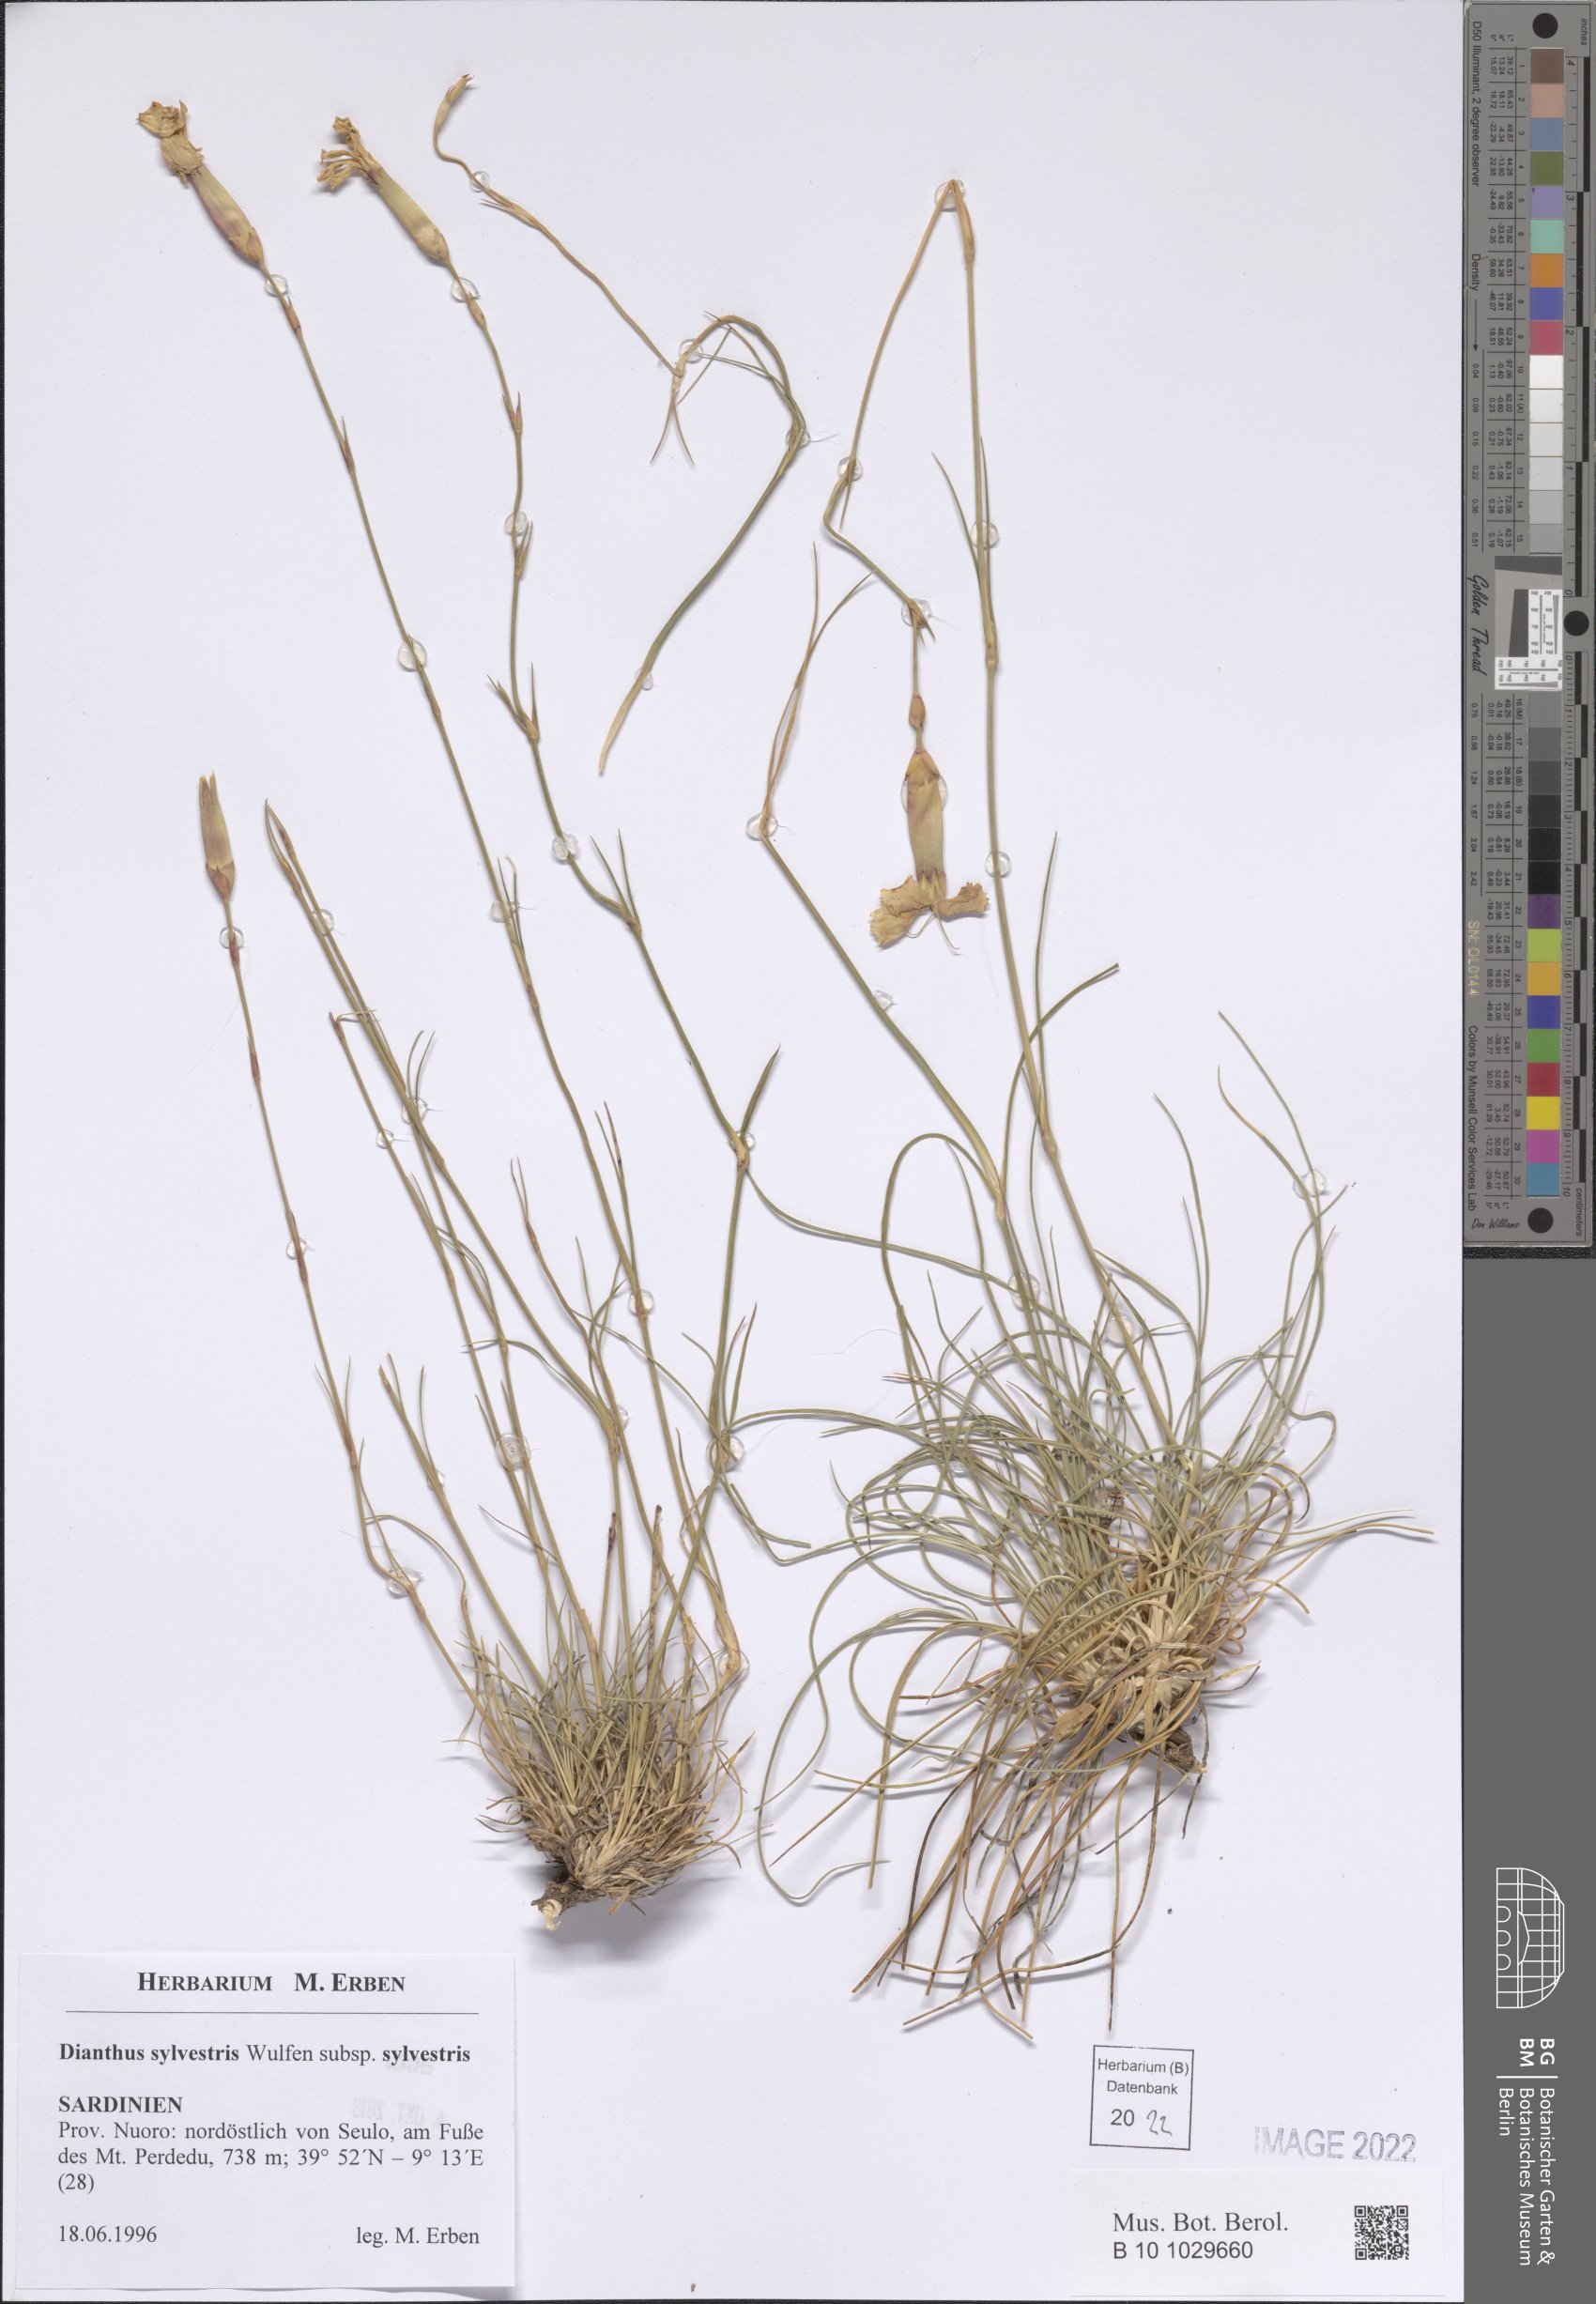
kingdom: Plantae
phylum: Tracheophyta
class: Magnoliopsida
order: Caryophyllales
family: Caryophyllaceae
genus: Dianthus
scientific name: Dianthus sylvestris
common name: Wood pink
